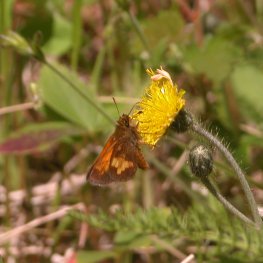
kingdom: Animalia
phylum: Arthropoda
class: Insecta
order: Lepidoptera
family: Hesperiidae
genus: Lon
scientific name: Lon hobomok
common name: Hobomok Skipper
